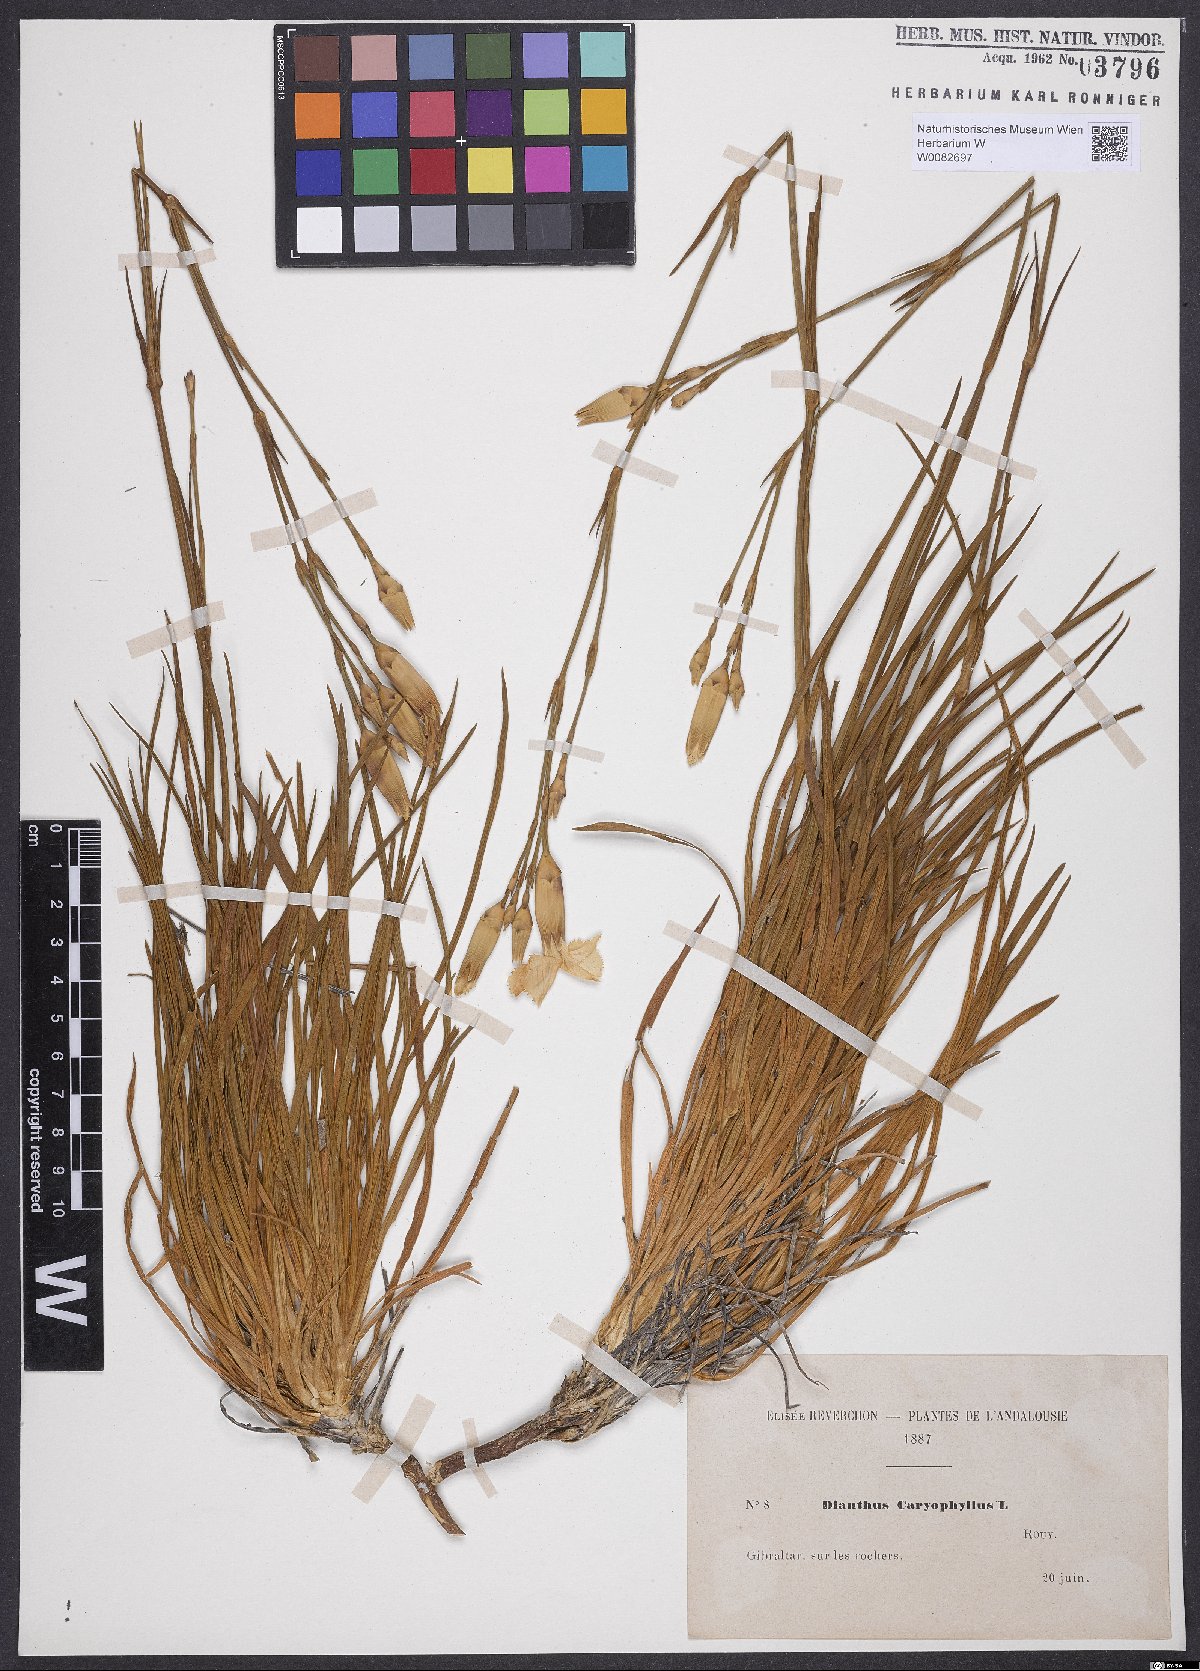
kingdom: Plantae
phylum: Tracheophyta
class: Magnoliopsida
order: Caryophyllales
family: Caryophyllaceae
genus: Dianthus
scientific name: Dianthus caryophyllus
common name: Clove pink
